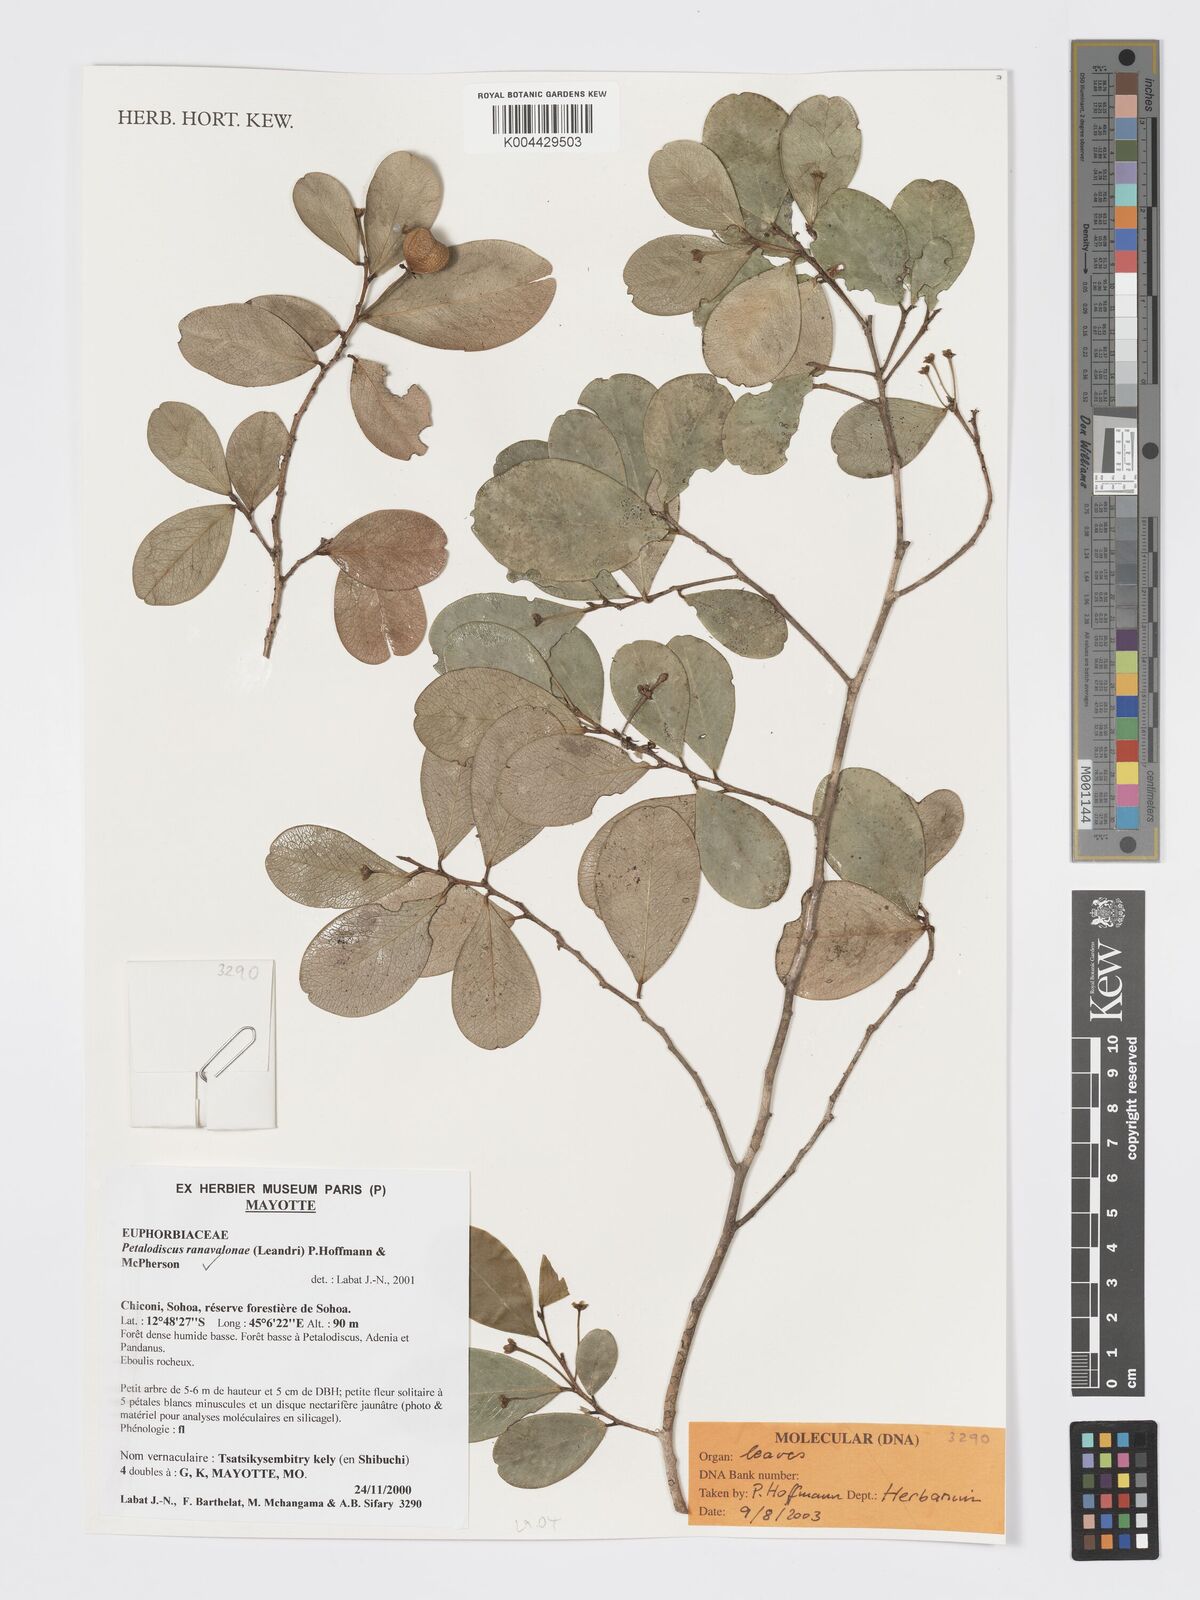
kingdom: Plantae
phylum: Tracheophyta
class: Magnoliopsida
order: Malpighiales
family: Phyllanthaceae
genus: Wielandia
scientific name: Wielandia ranavalonae
